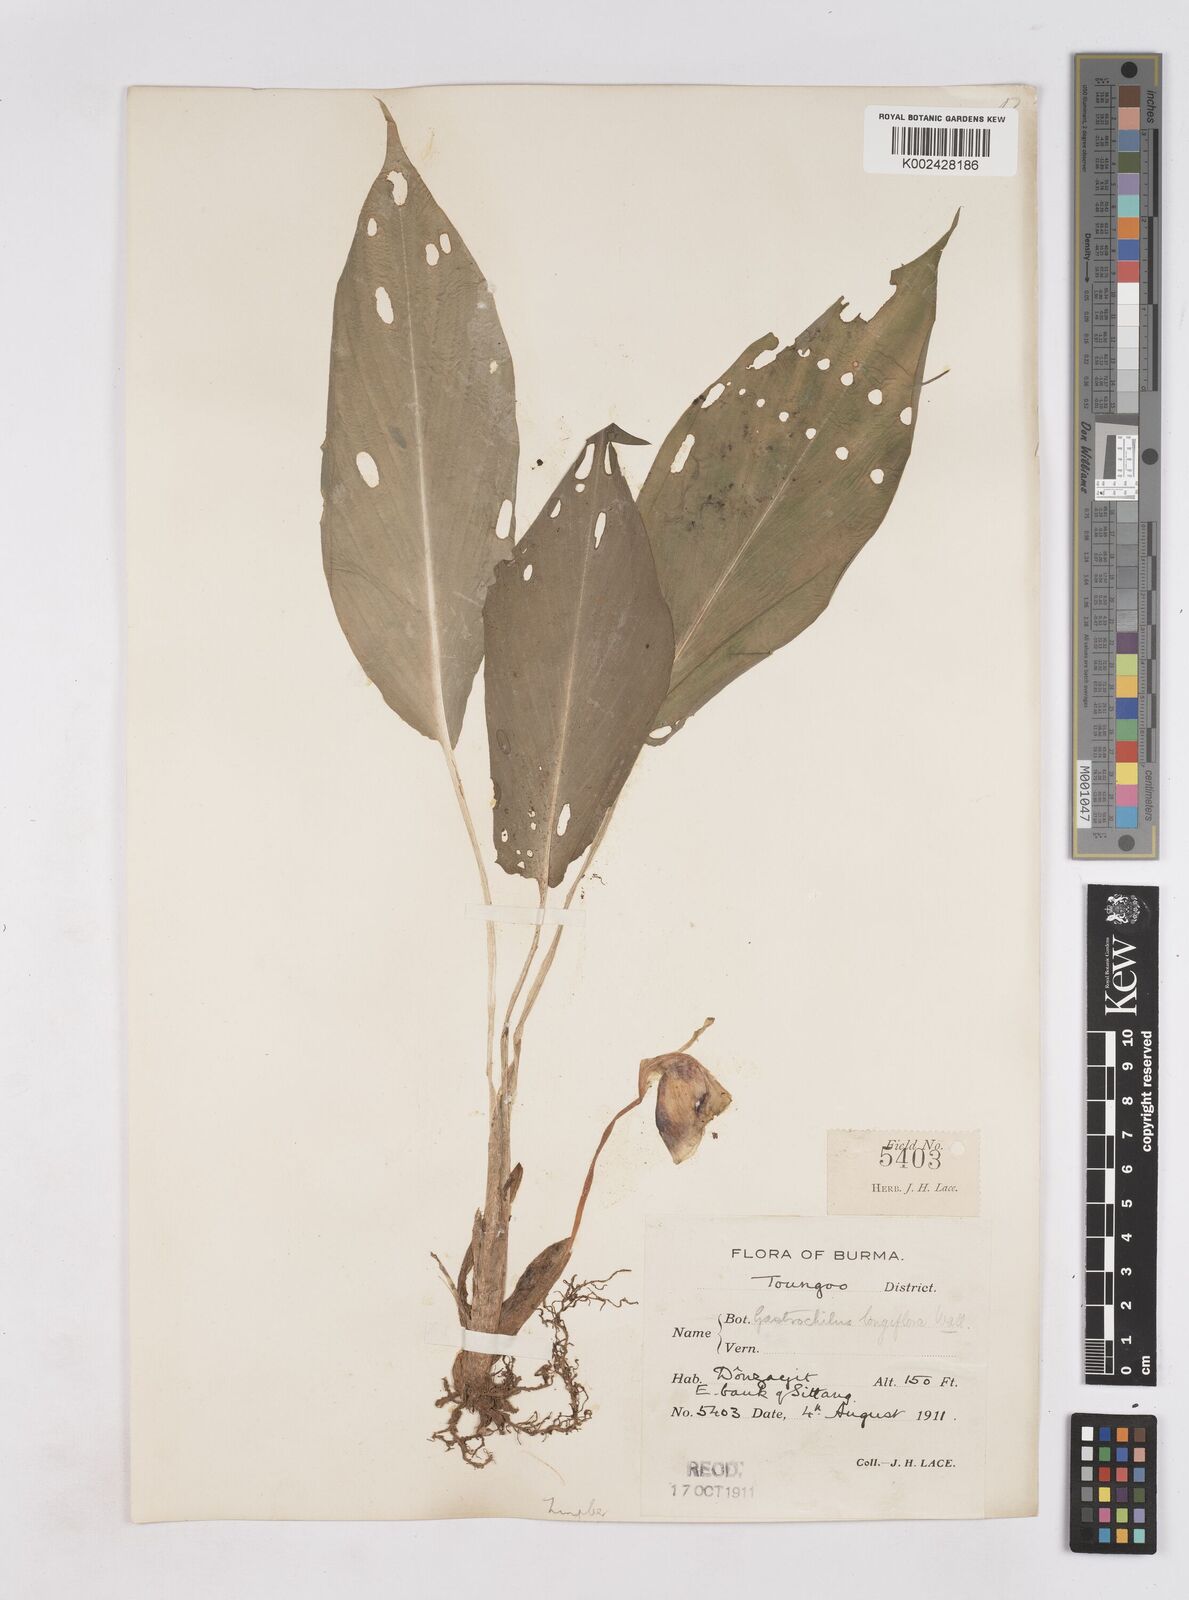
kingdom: Plantae
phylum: Tracheophyta
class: Liliopsida
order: Zingiberales
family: Zingiberaceae
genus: Boesenbergia
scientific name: Boesenbergia longiflora
